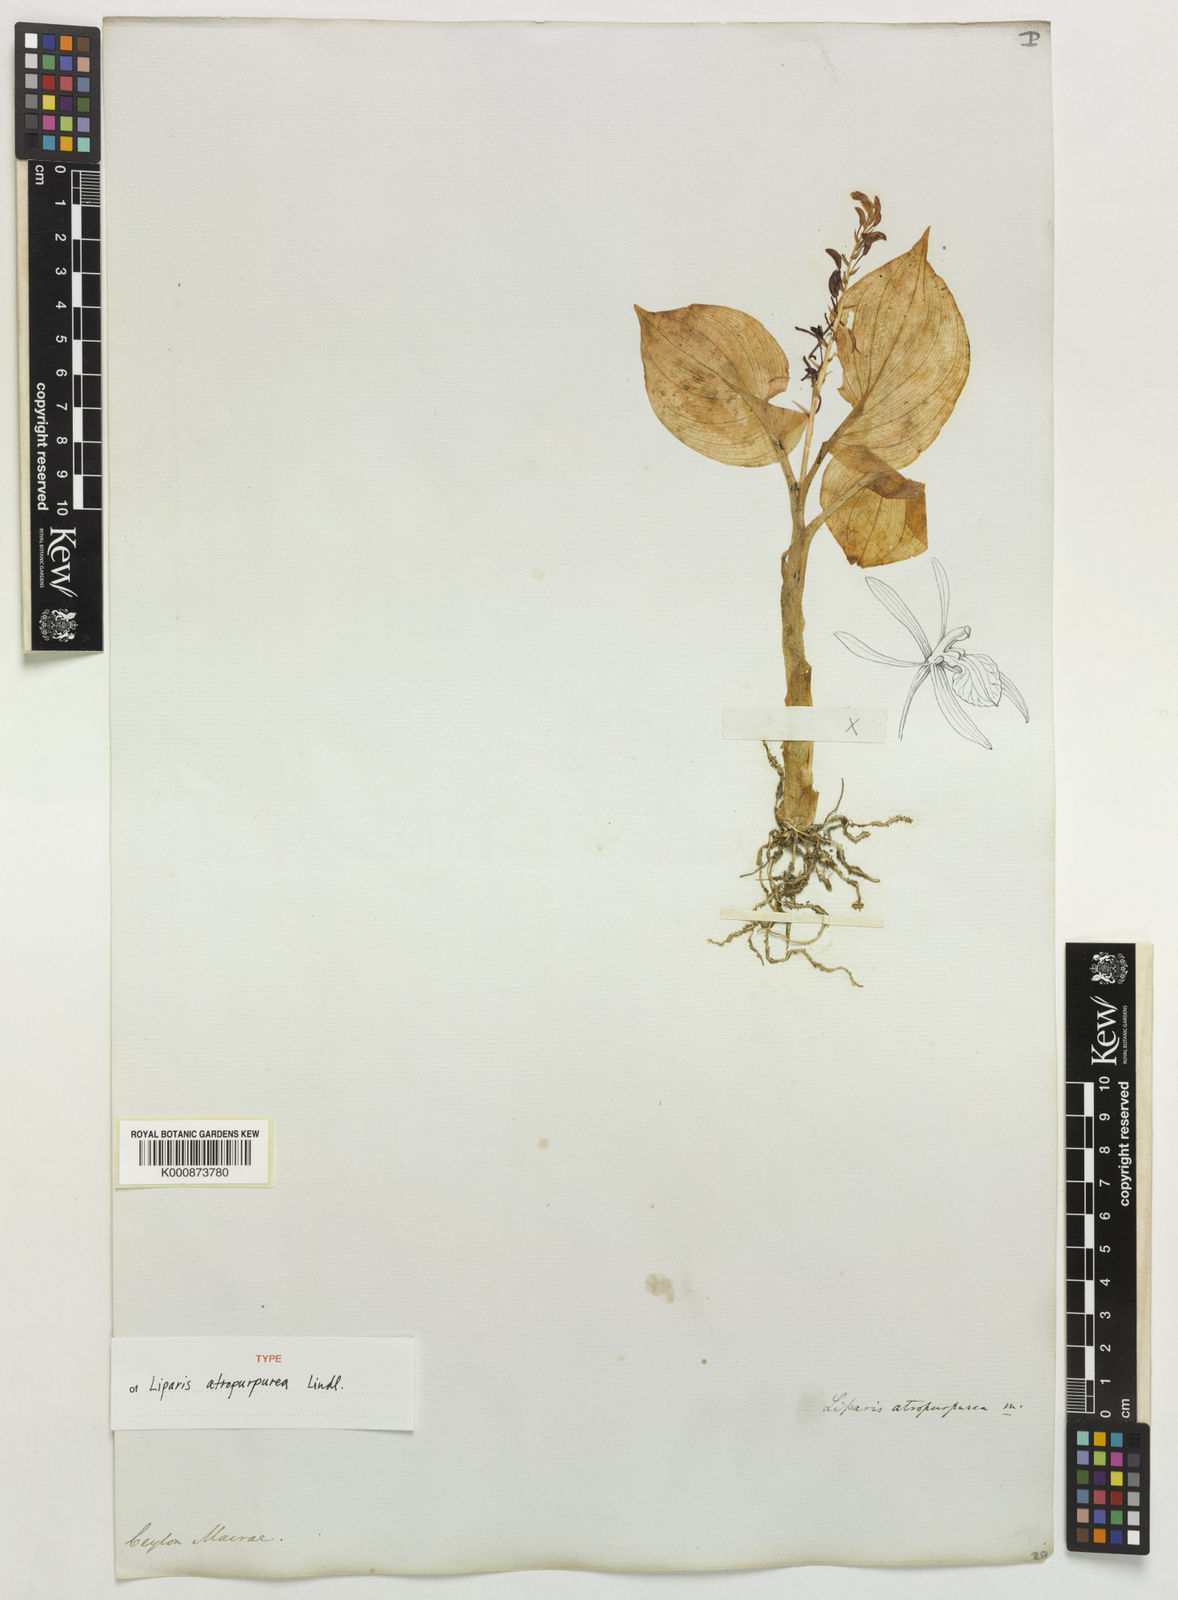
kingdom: Plantae
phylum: Tracheophyta
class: Liliopsida
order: Asparagales
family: Orchidaceae
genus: Liparis
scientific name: Liparis atropurpurea
